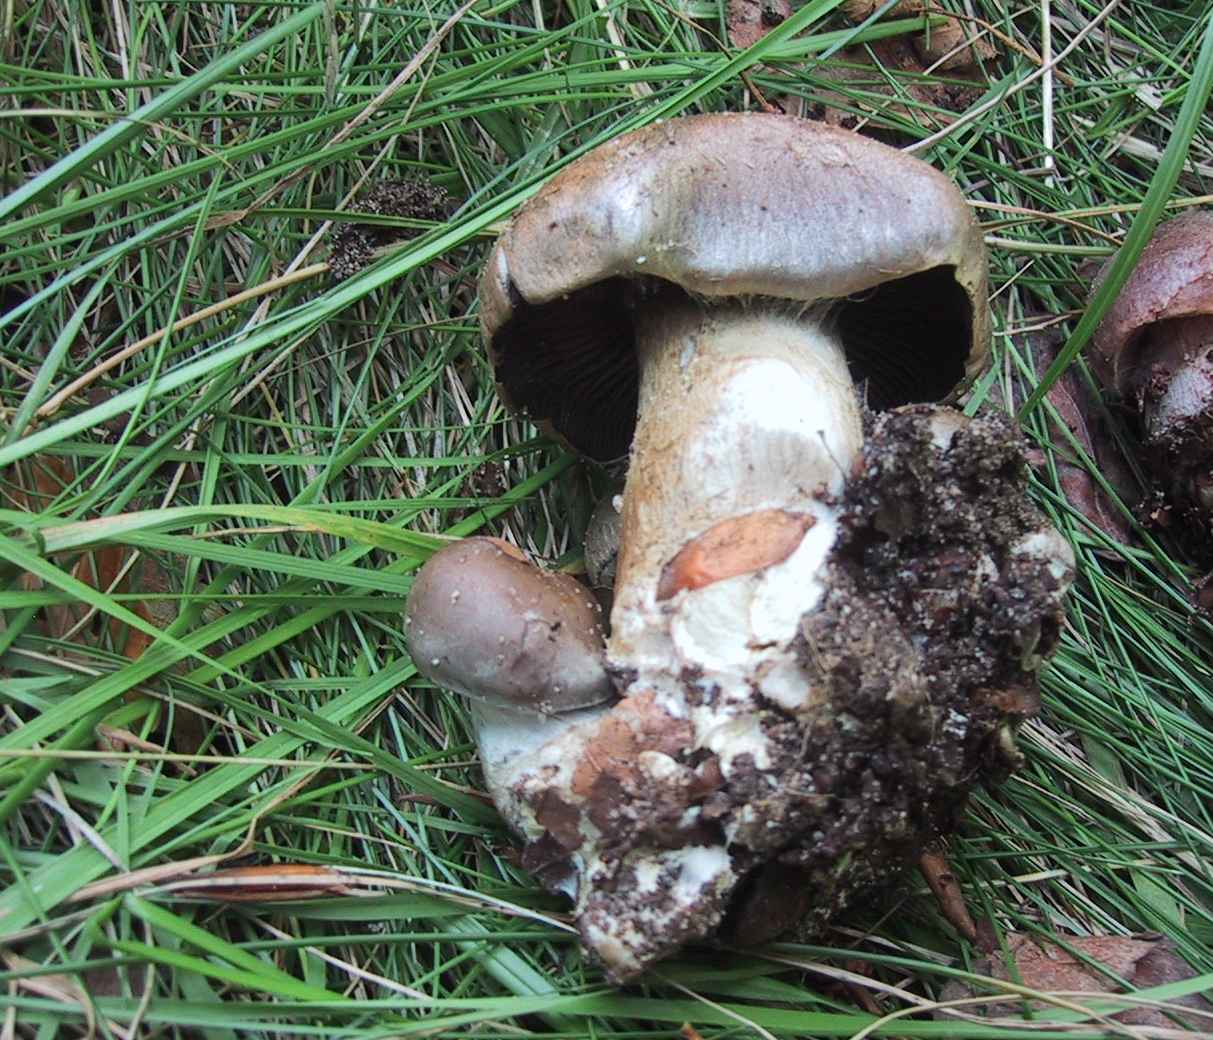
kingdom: Fungi
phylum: Basidiomycota
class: Agaricomycetes
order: Agaricales
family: Cortinariaceae
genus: Cortinarius
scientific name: Cortinarius
